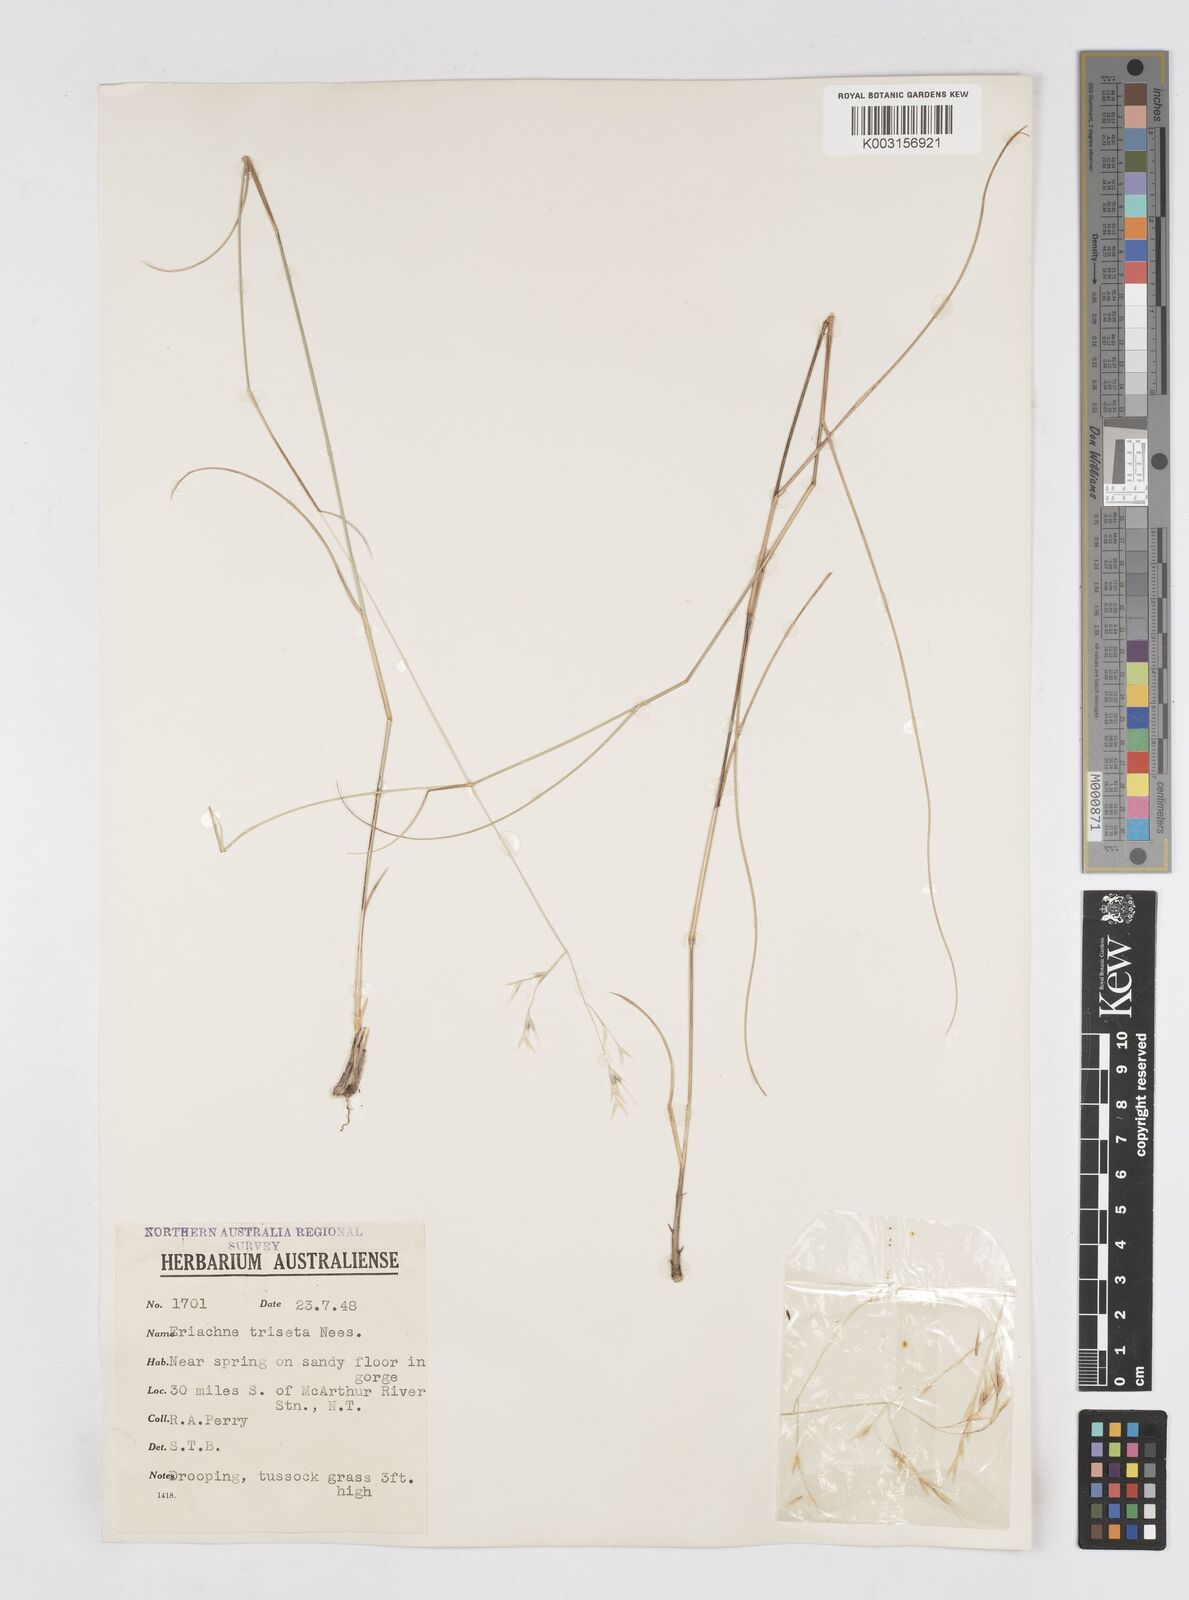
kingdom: Plantae
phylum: Tracheophyta
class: Liliopsida
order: Poales
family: Poaceae
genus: Eriachne
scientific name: Eriachne triseta
